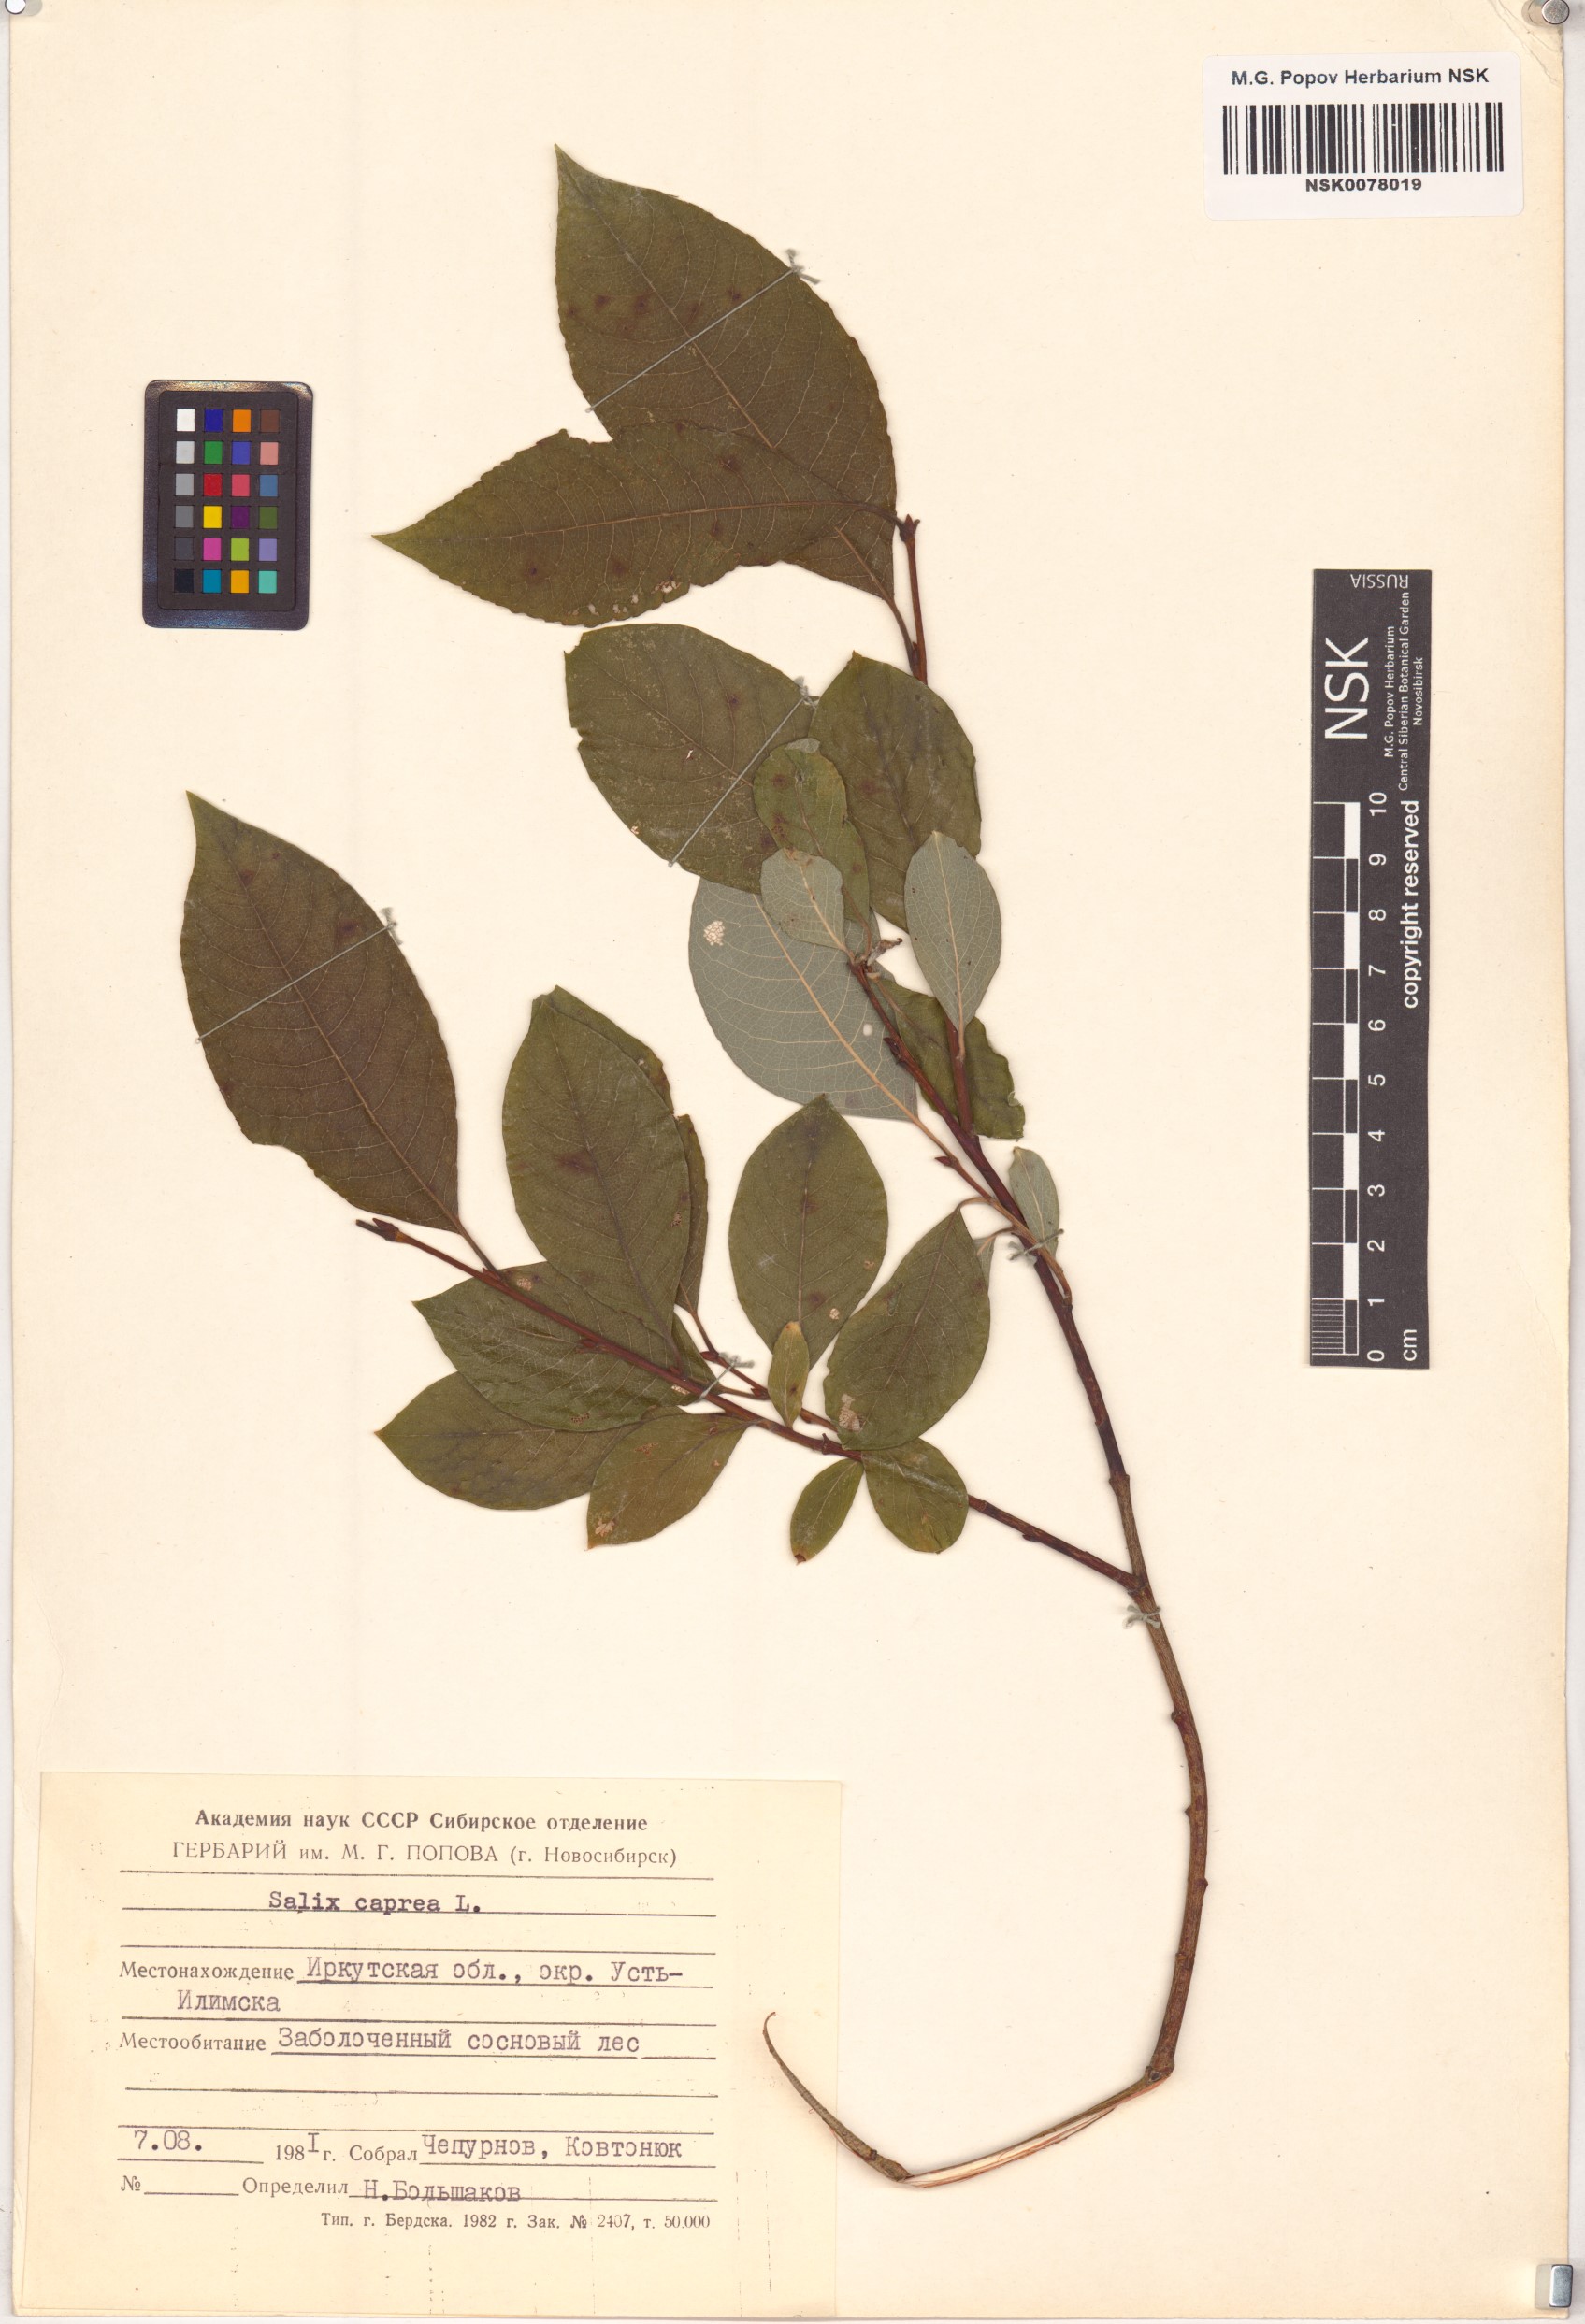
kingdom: Plantae
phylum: Tracheophyta
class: Magnoliopsida
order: Malpighiales
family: Salicaceae
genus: Salix
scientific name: Salix caprea
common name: Goat willow
